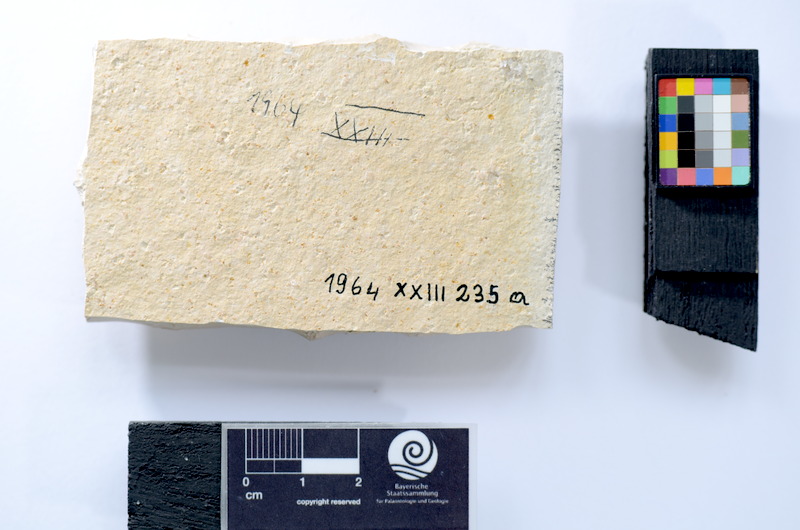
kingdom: Animalia
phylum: Chordata
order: Salmoniformes
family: Orthogonikleithridae
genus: Leptolepides
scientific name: Leptolepides
